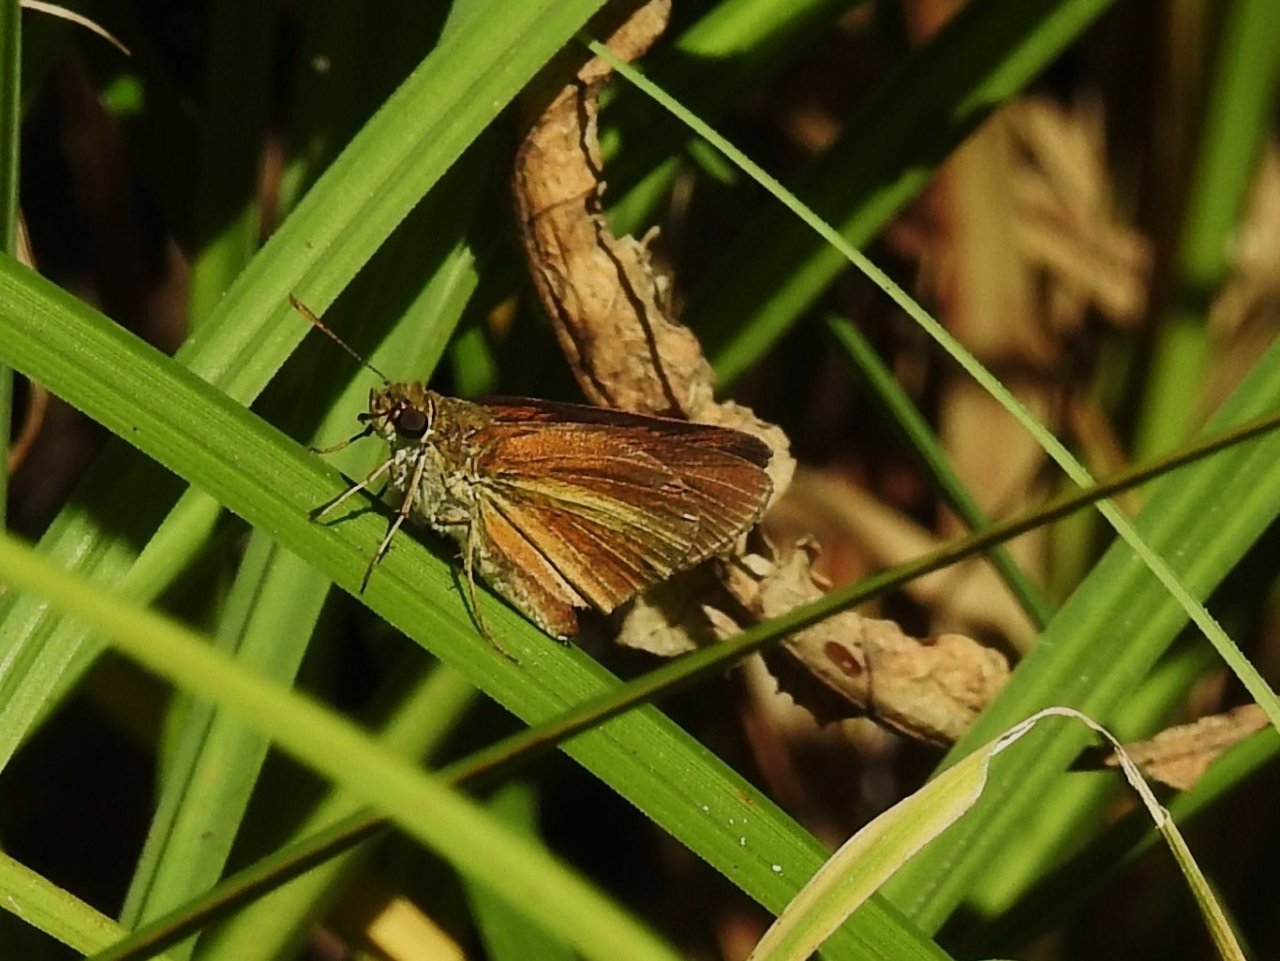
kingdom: Animalia
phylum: Arthropoda
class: Insecta
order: Lepidoptera
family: Hesperiidae
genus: Euphyes
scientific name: Euphyes dukesi
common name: Dukes' Skipper
